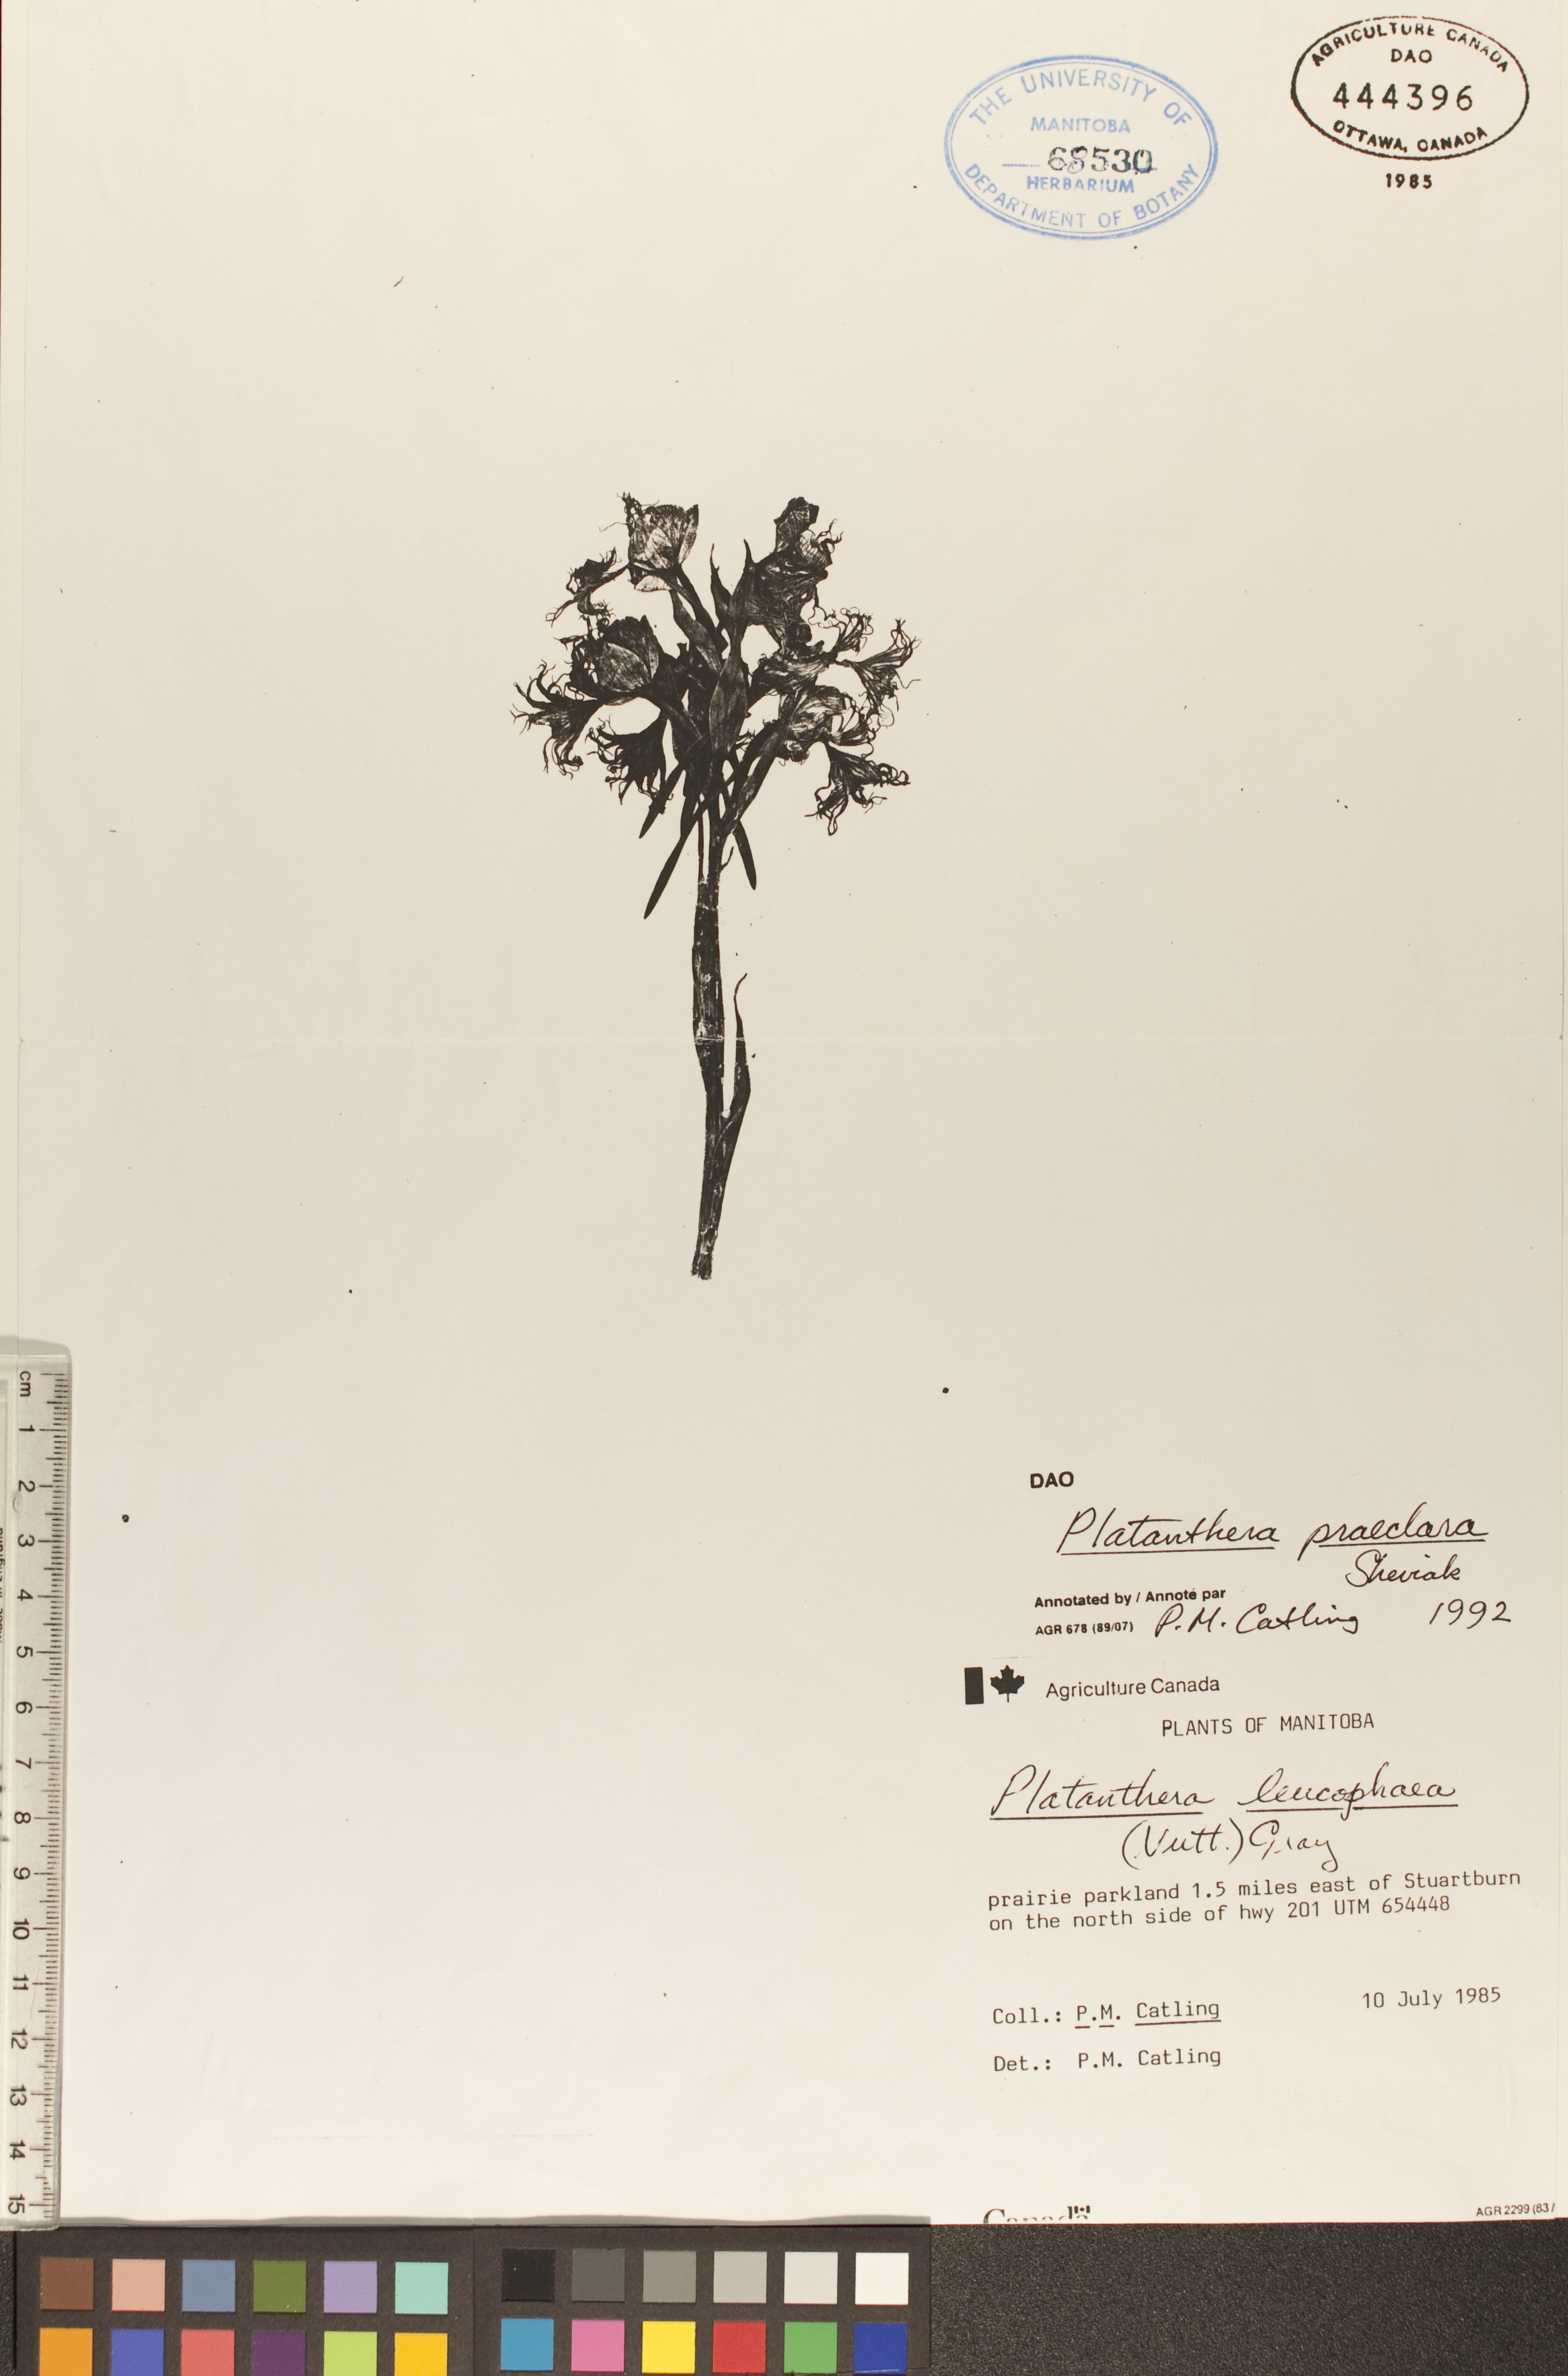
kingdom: Plantae
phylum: Tracheophyta
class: Liliopsida
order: Asparagales
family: Orchidaceae
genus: Platanthera
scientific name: Platanthera praeclara
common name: Western prairie fringed orchid
